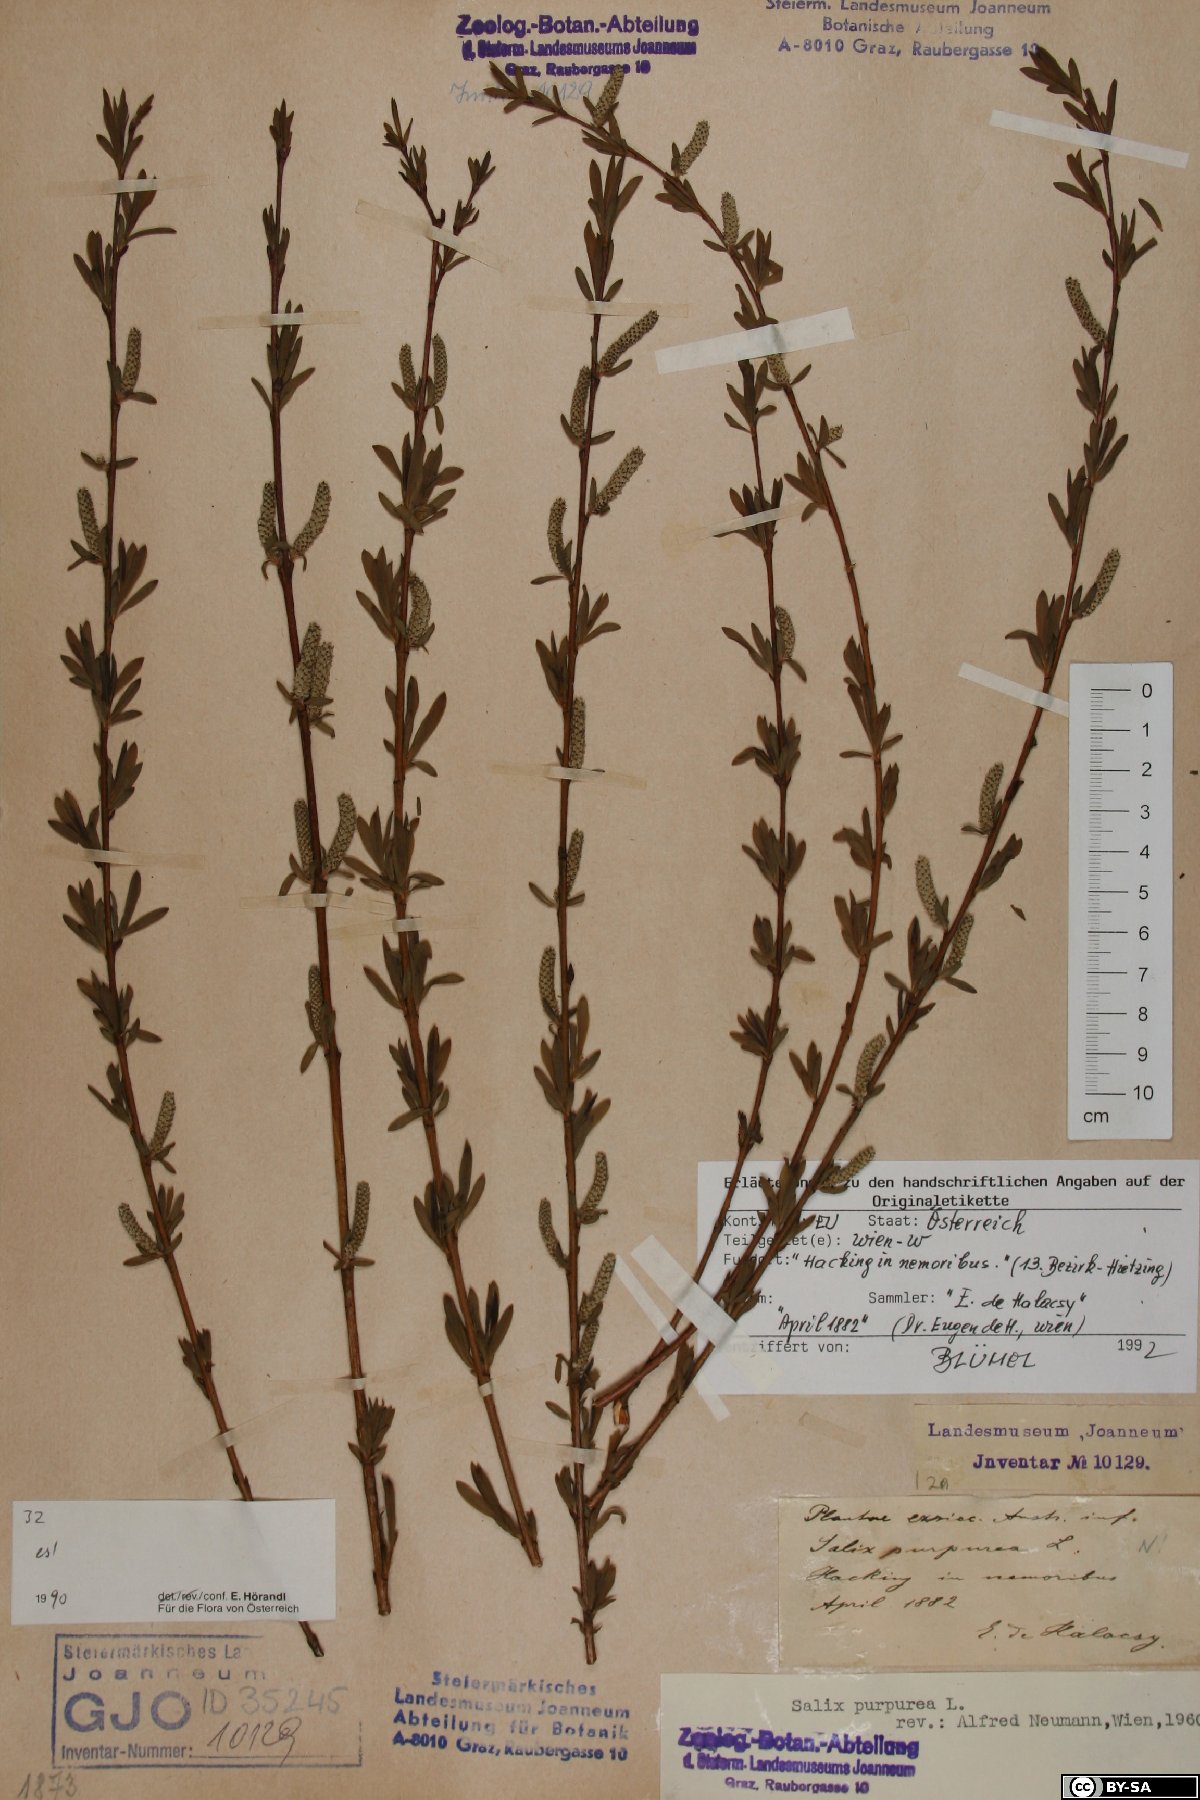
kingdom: Plantae
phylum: Tracheophyta
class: Magnoliopsida
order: Malpighiales
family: Salicaceae
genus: Salix
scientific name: Salix purpurea
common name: Purple willow
